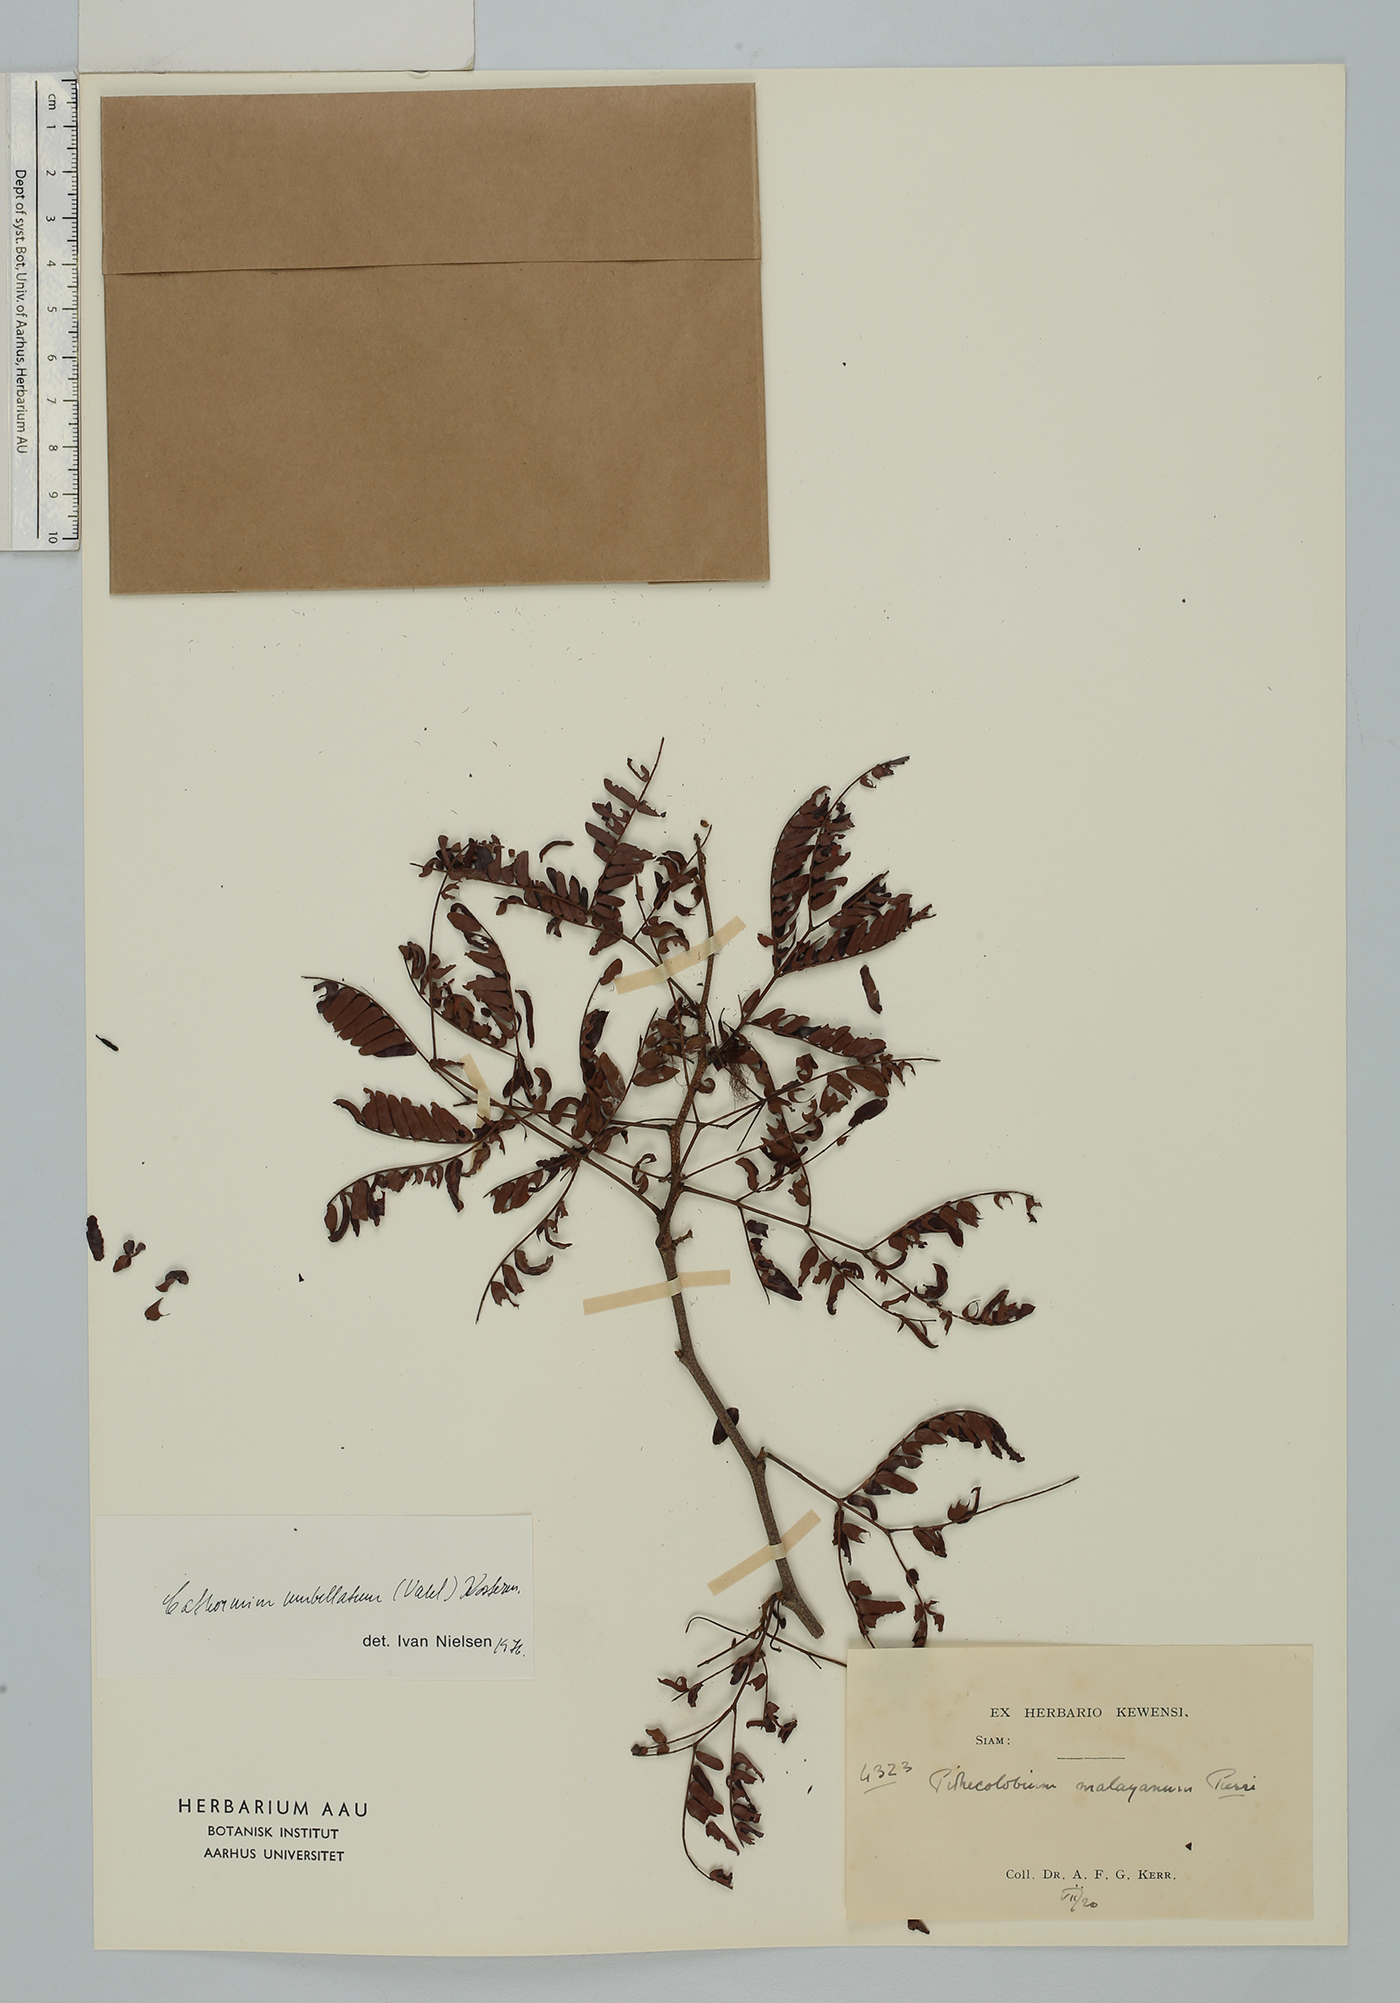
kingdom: Plantae
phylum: Tracheophyta
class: Magnoliopsida
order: Fabales
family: Fabaceae
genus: Cathormion
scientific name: Cathormion umbellatum
